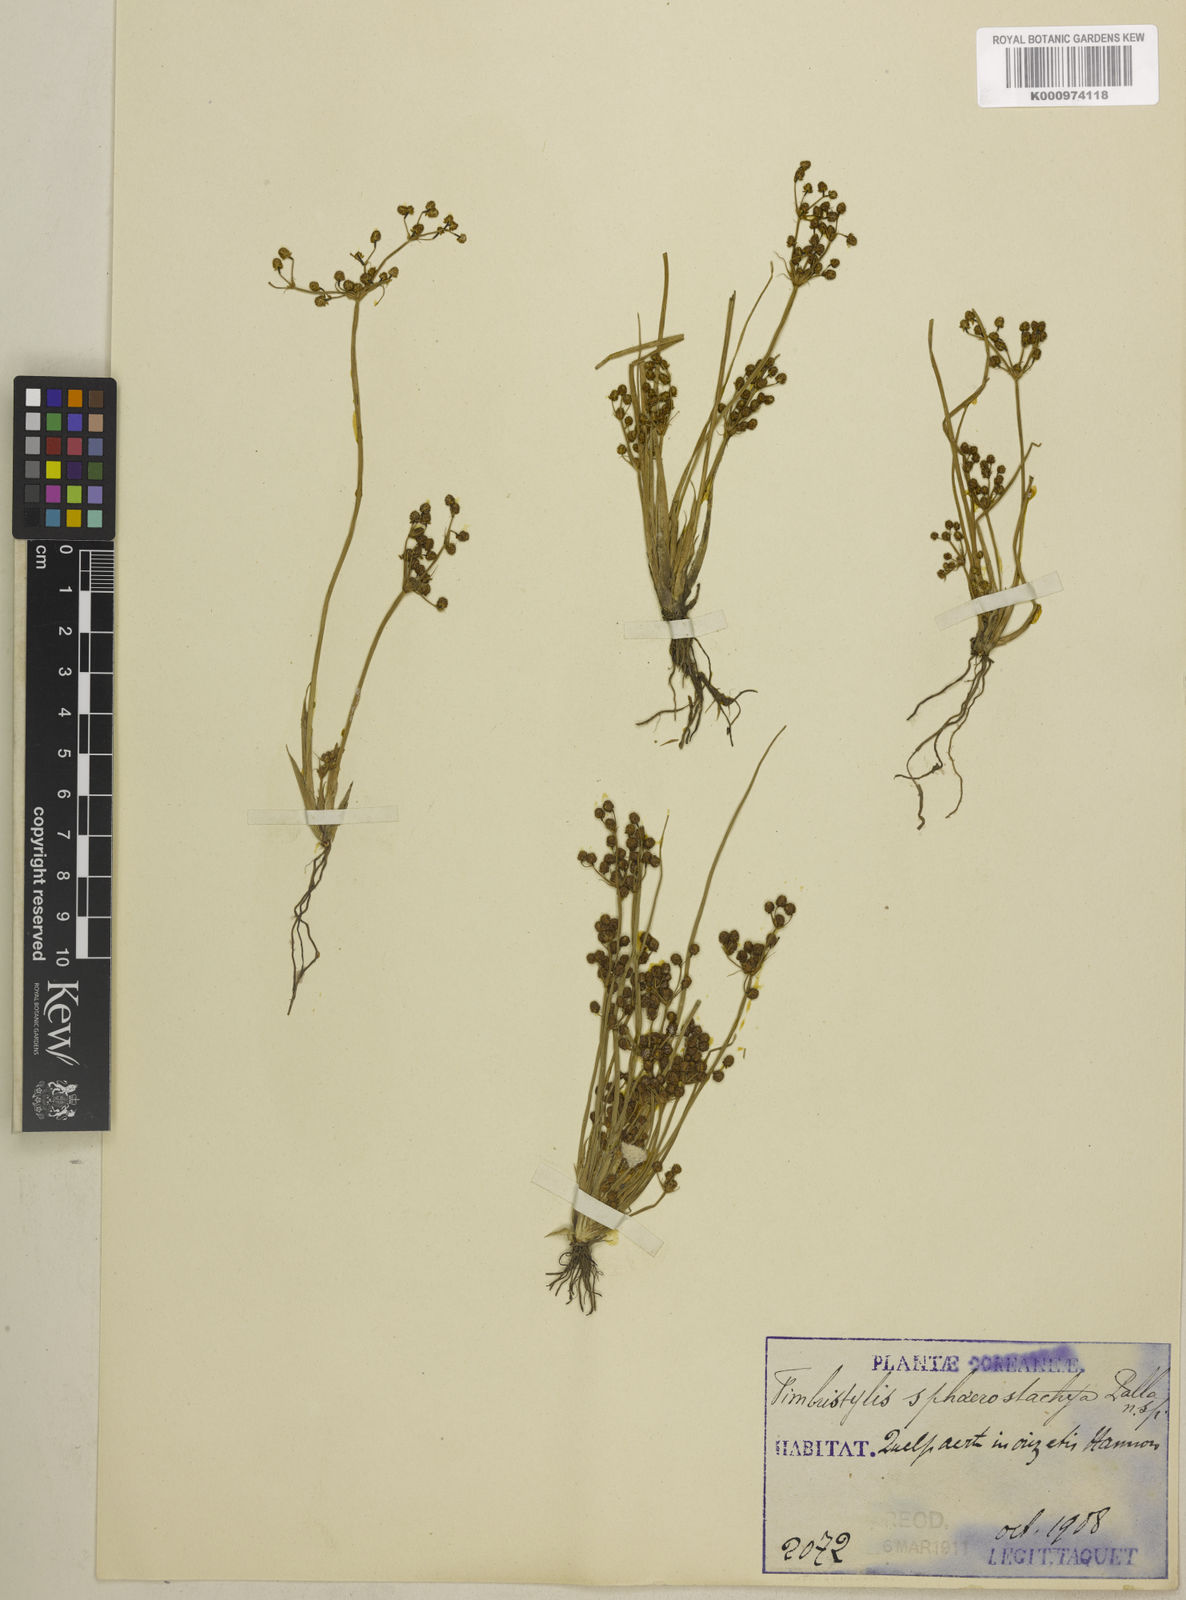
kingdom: Plantae
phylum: Tracheophyta
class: Liliopsida
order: Poales
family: Cyperaceae
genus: Fimbristylis
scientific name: Fimbristylis
